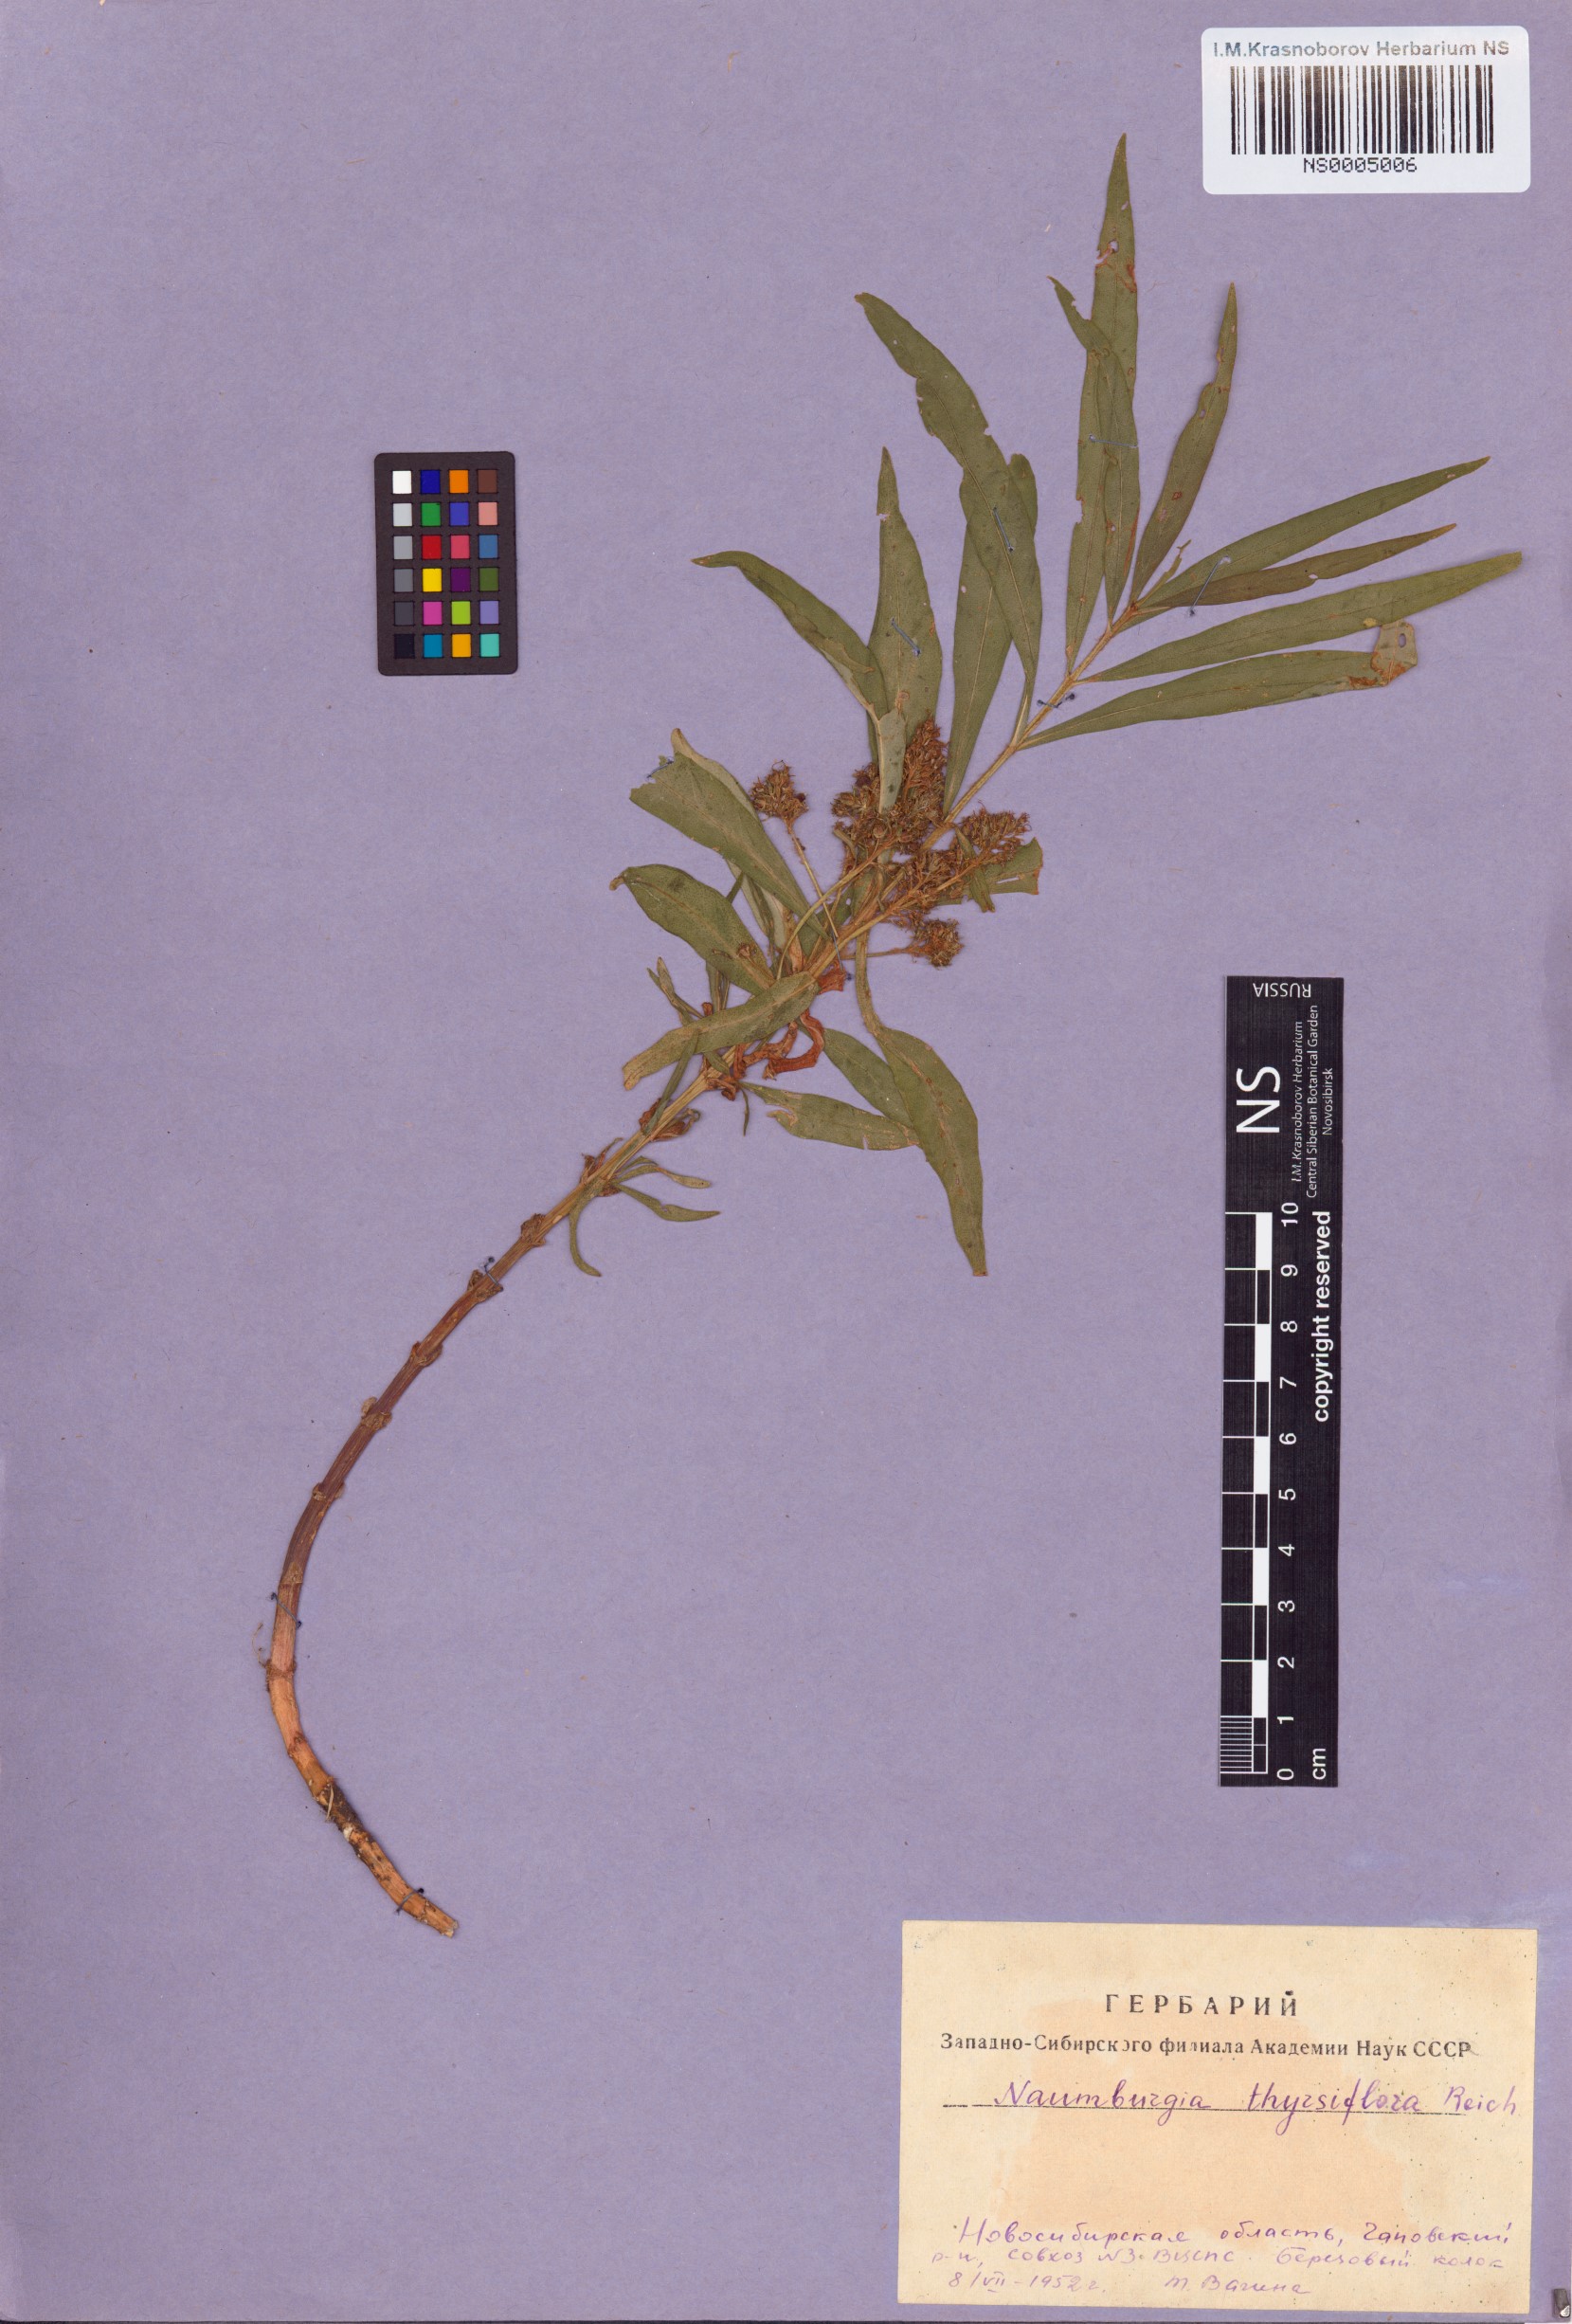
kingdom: Plantae
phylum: Tracheophyta
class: Magnoliopsida
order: Ericales
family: Primulaceae
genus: Lysimachia
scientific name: Lysimachia thyrsiflora
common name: Tufted loosestrife
